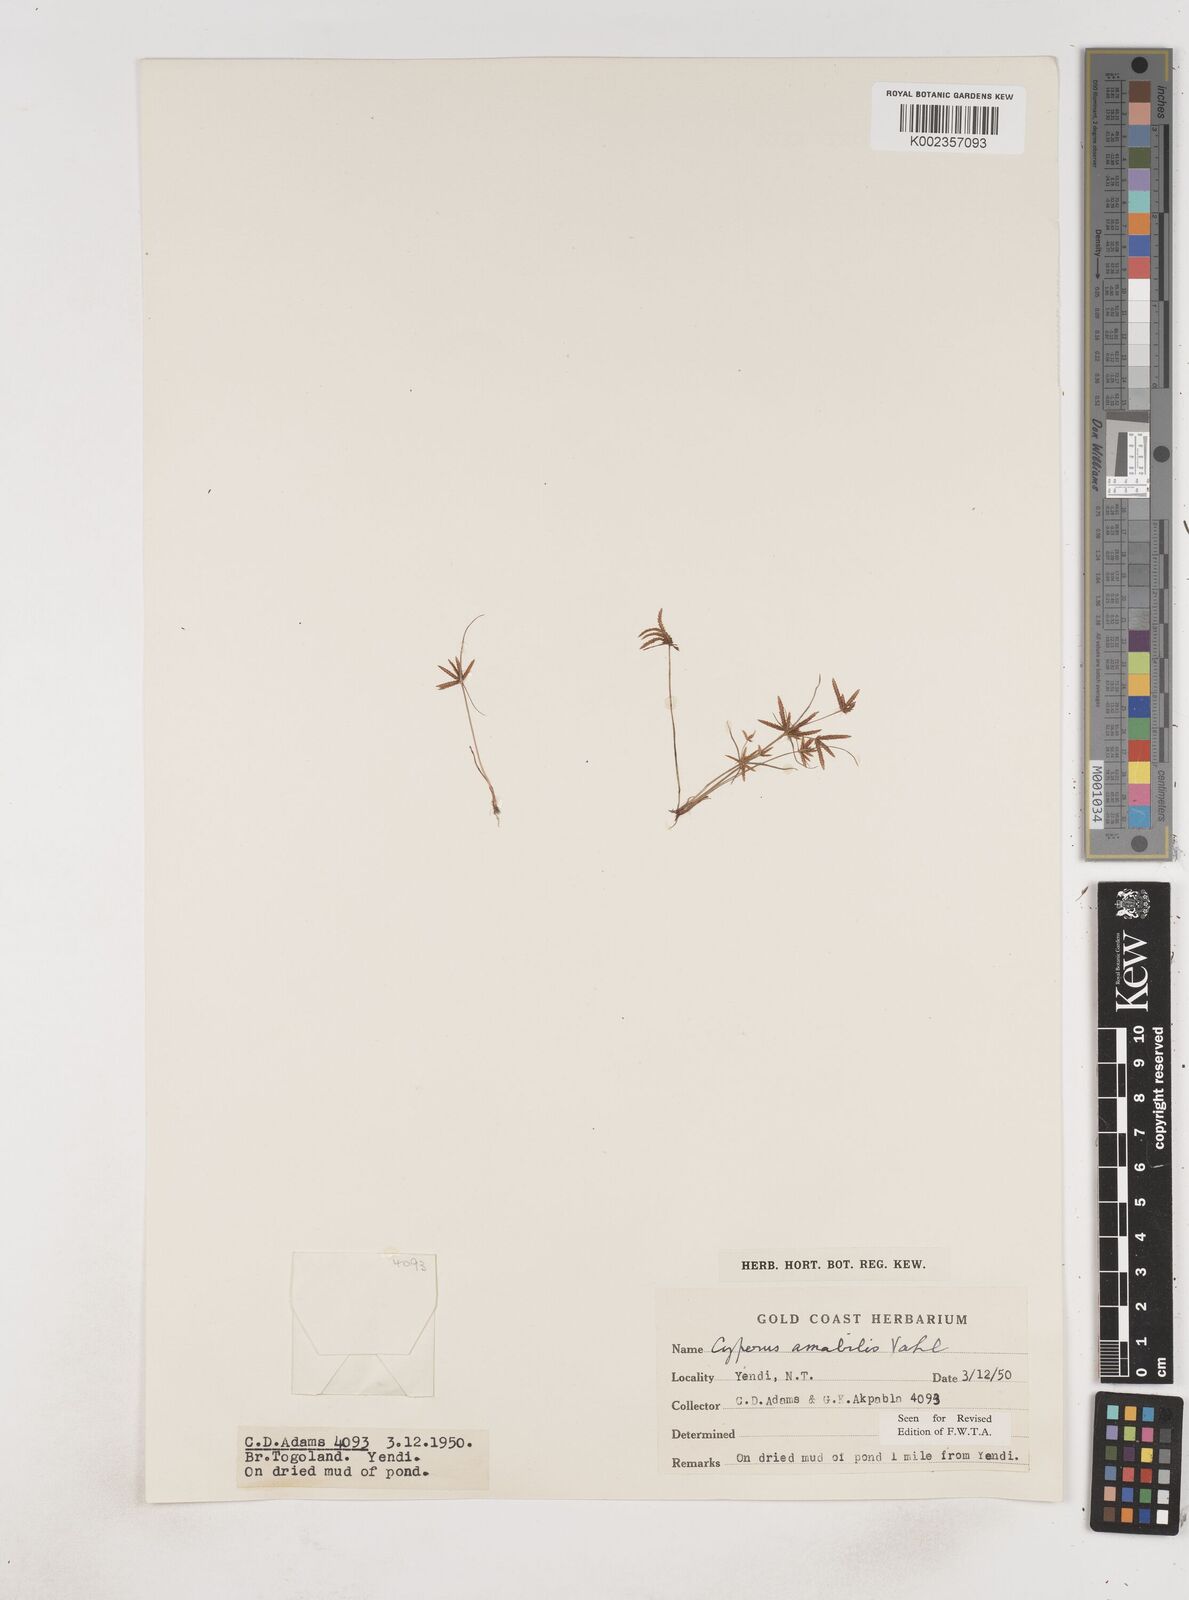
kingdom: Plantae
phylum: Tracheophyta
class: Liliopsida
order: Poales
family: Cyperaceae
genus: Cyperus
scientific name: Cyperus amabilis
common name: Foothill flat sedge
